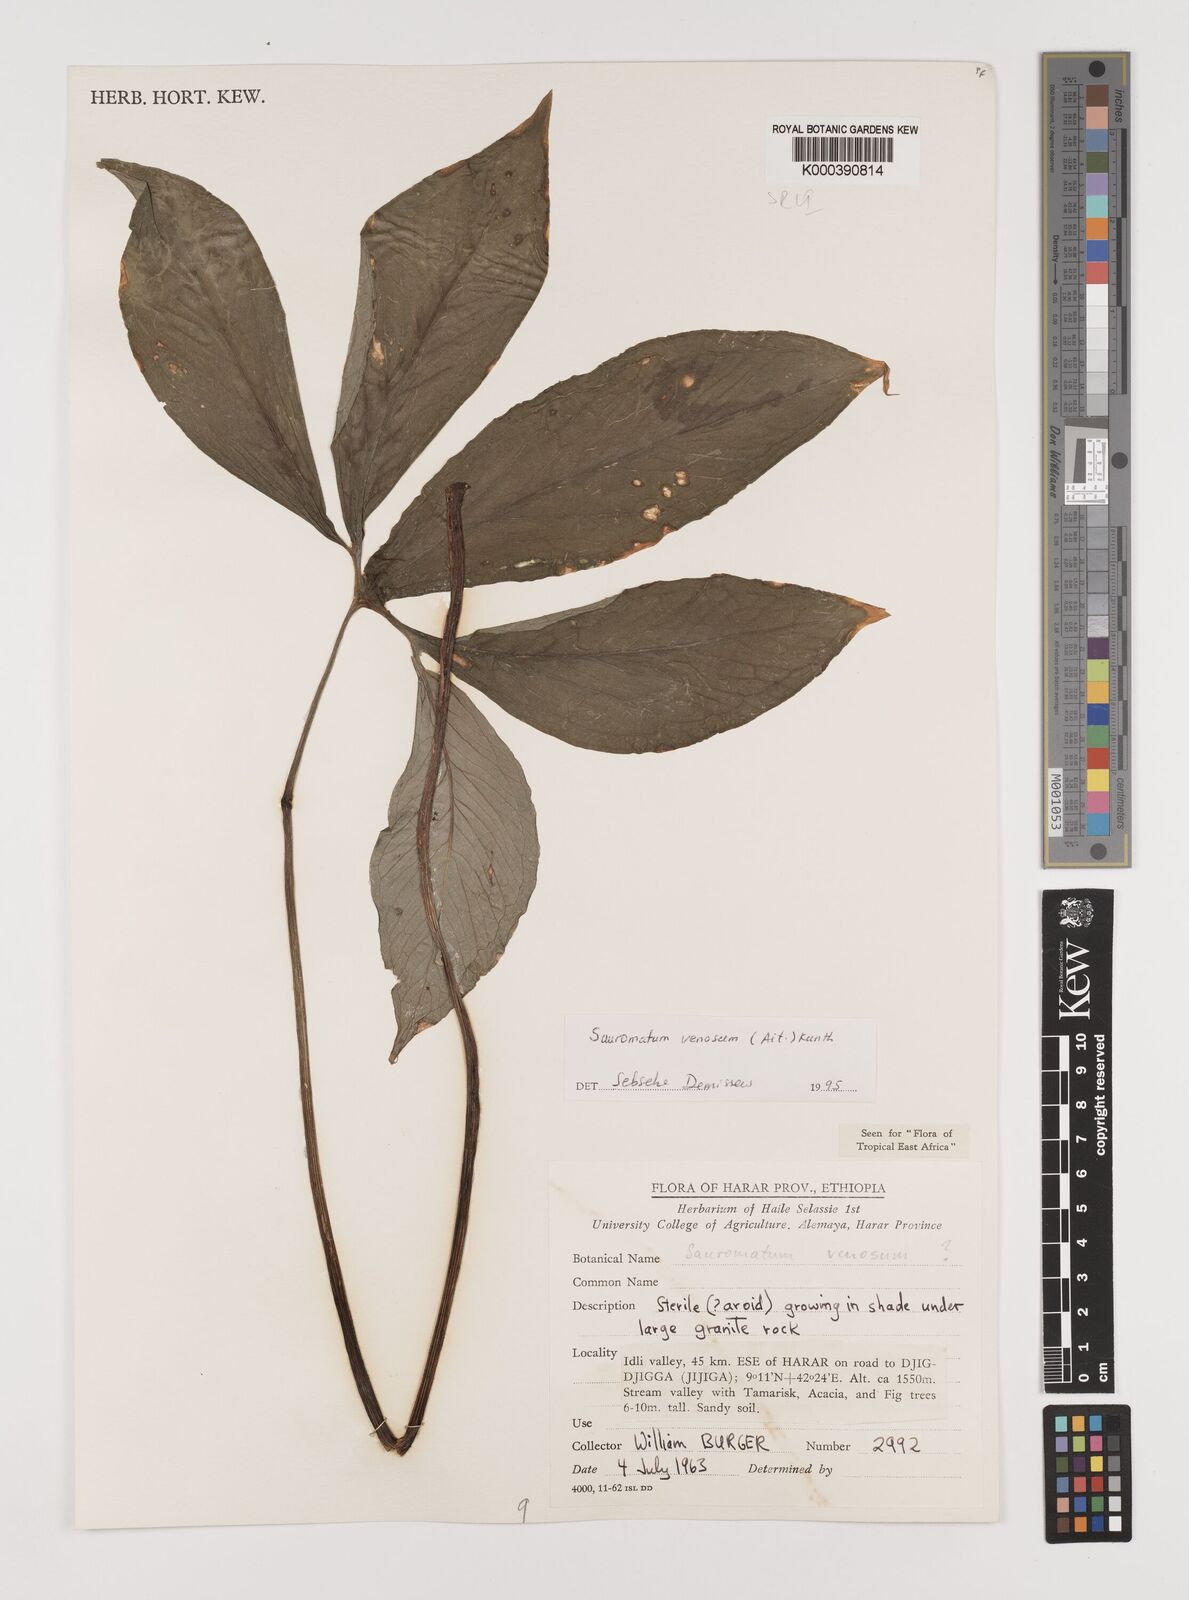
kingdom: Plantae
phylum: Tracheophyta
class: Liliopsida
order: Alismatales
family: Araceae
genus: Sauromatum
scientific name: Sauromatum venosum
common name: Voodoo lily
